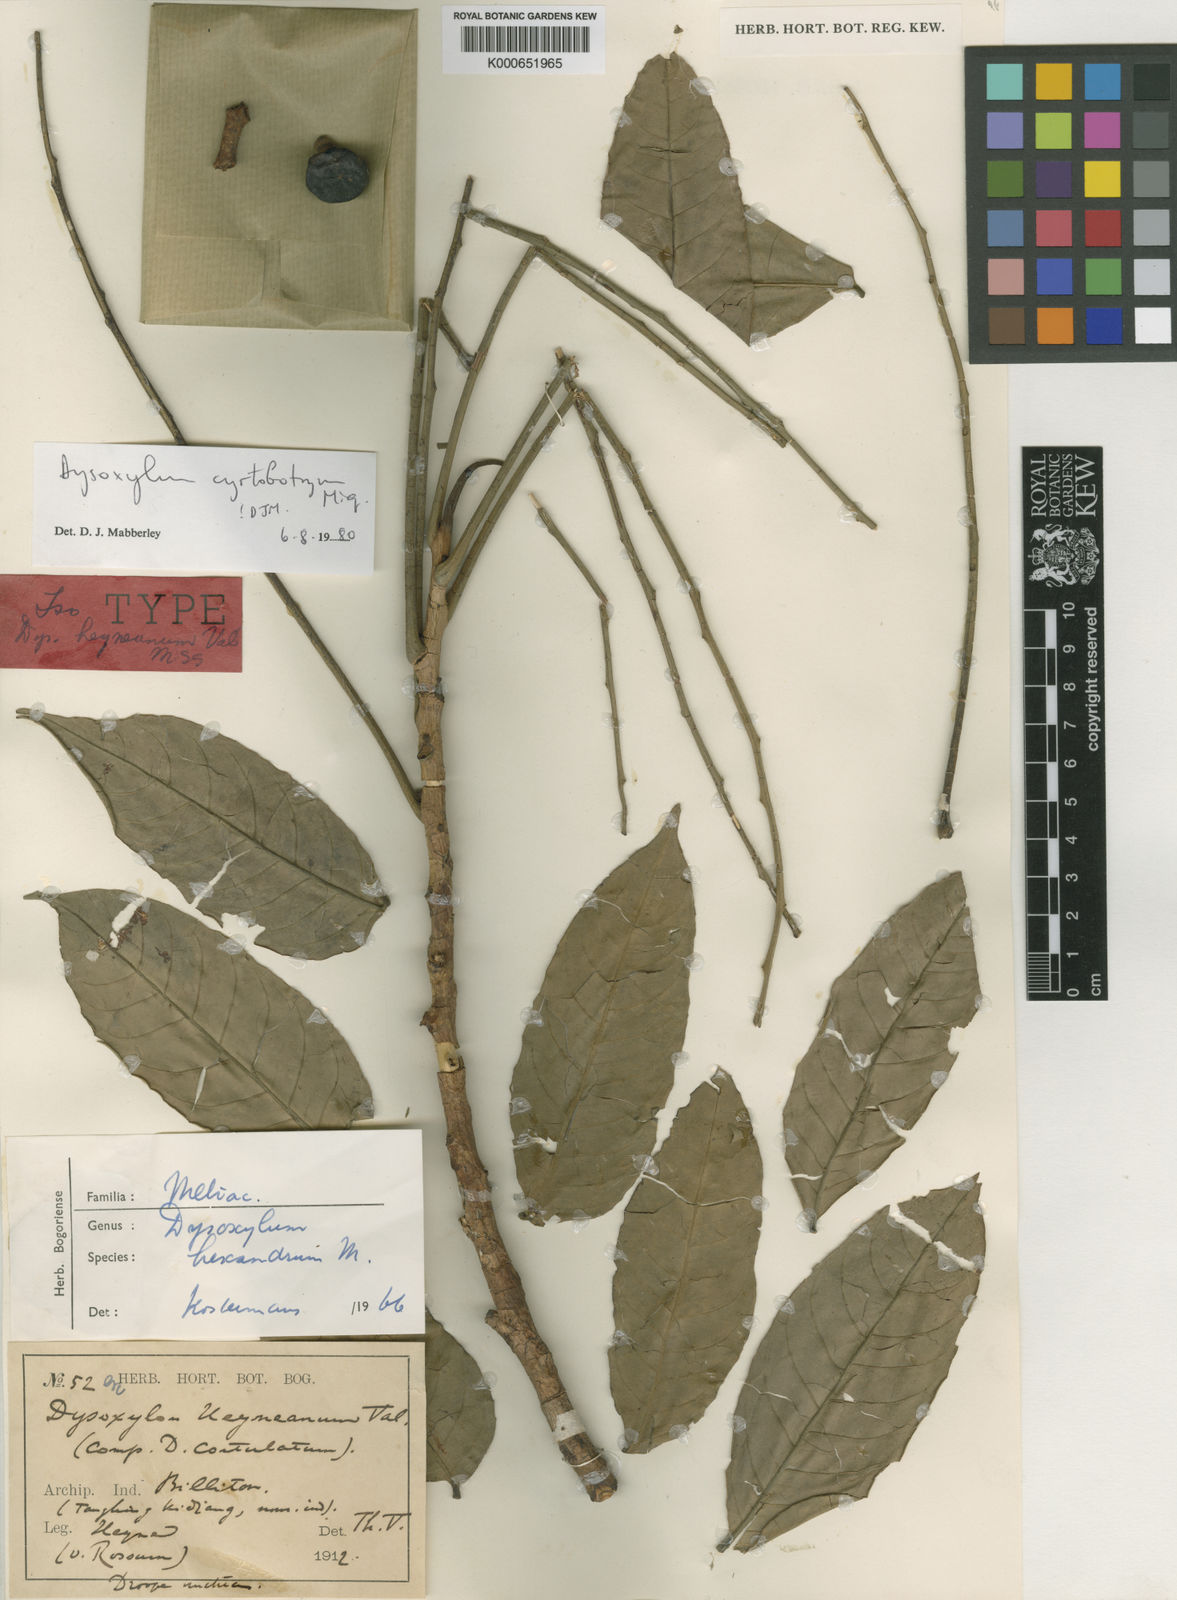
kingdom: Plantae
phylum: Tracheophyta
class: Magnoliopsida
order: Sapindales
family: Meliaceae
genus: Dysoxylum
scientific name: Dysoxylum cyrtobotryum
